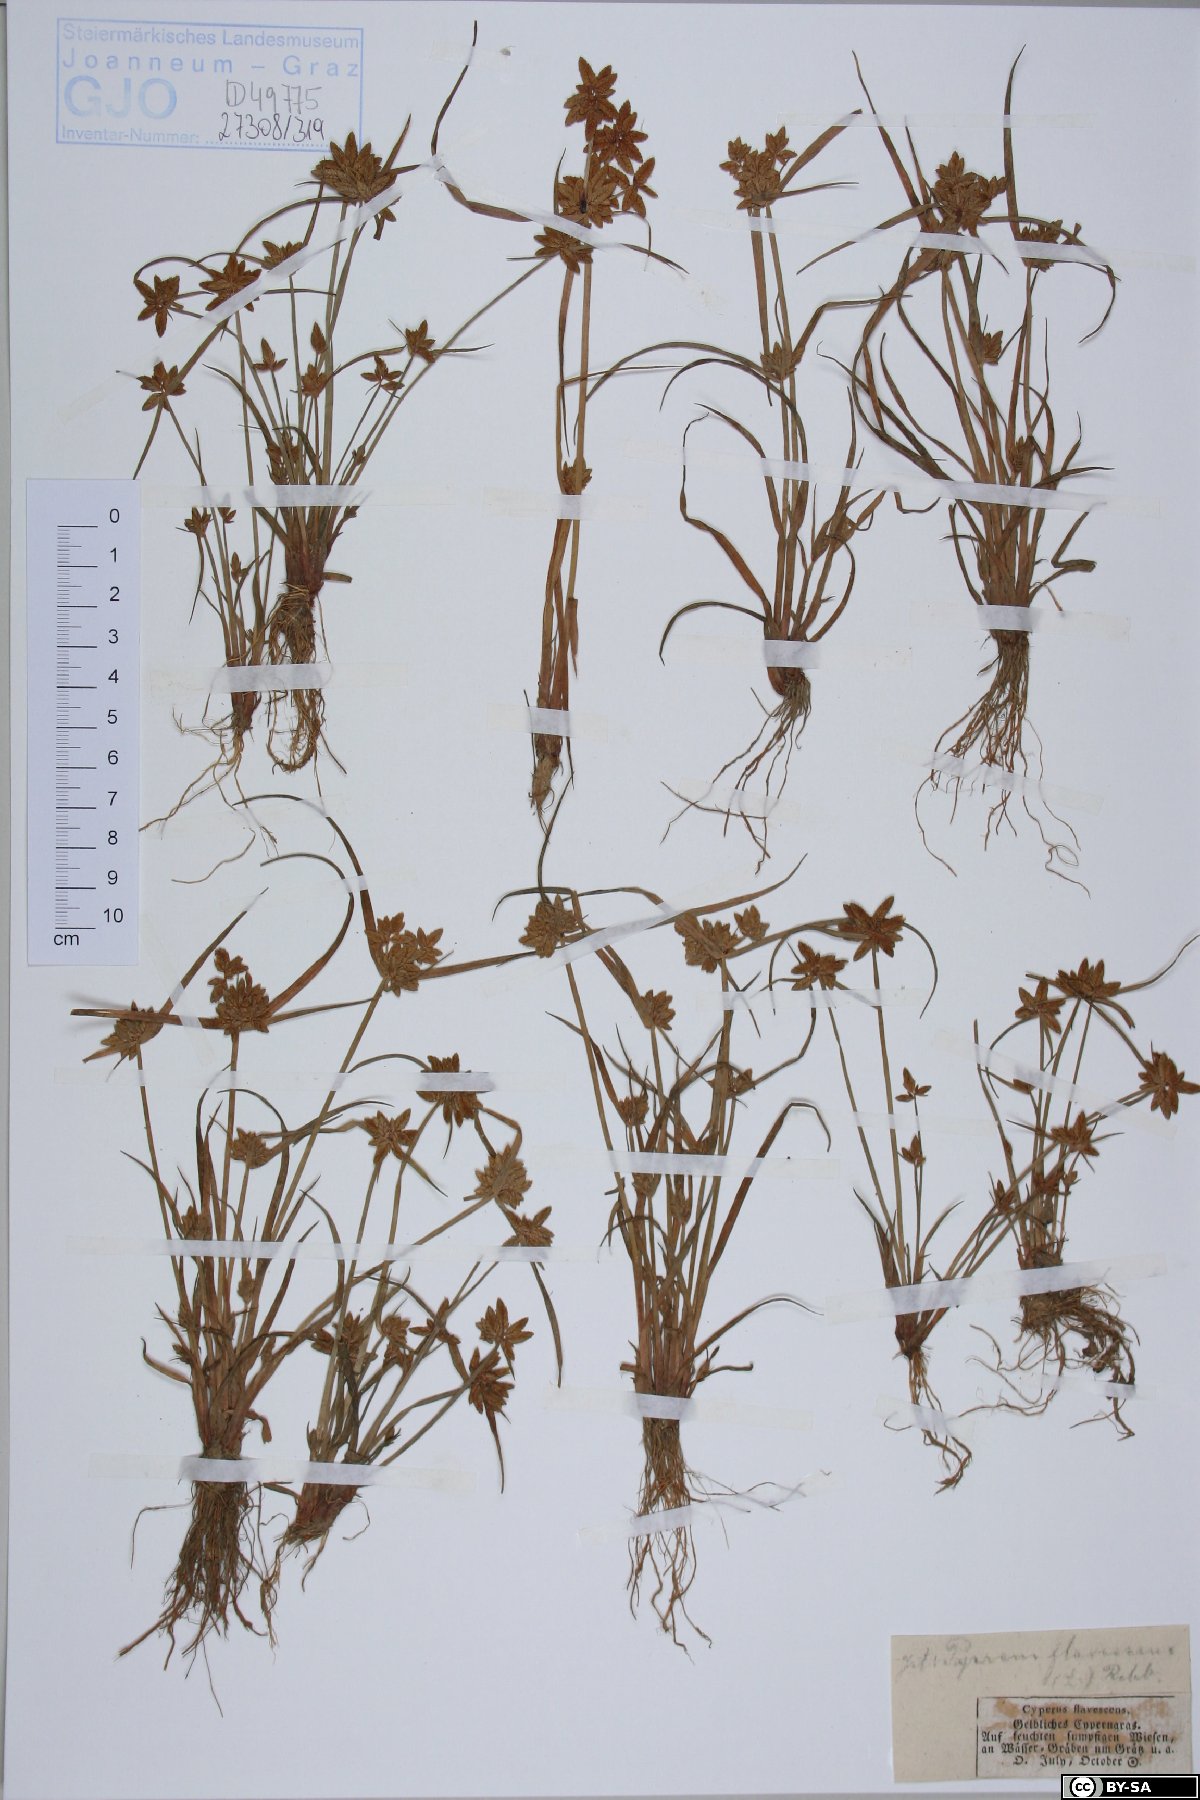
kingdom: Plantae
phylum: Tracheophyta
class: Liliopsida
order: Poales
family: Cyperaceae
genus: Cyperus
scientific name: Cyperus flavescens
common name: Yellow galingale
